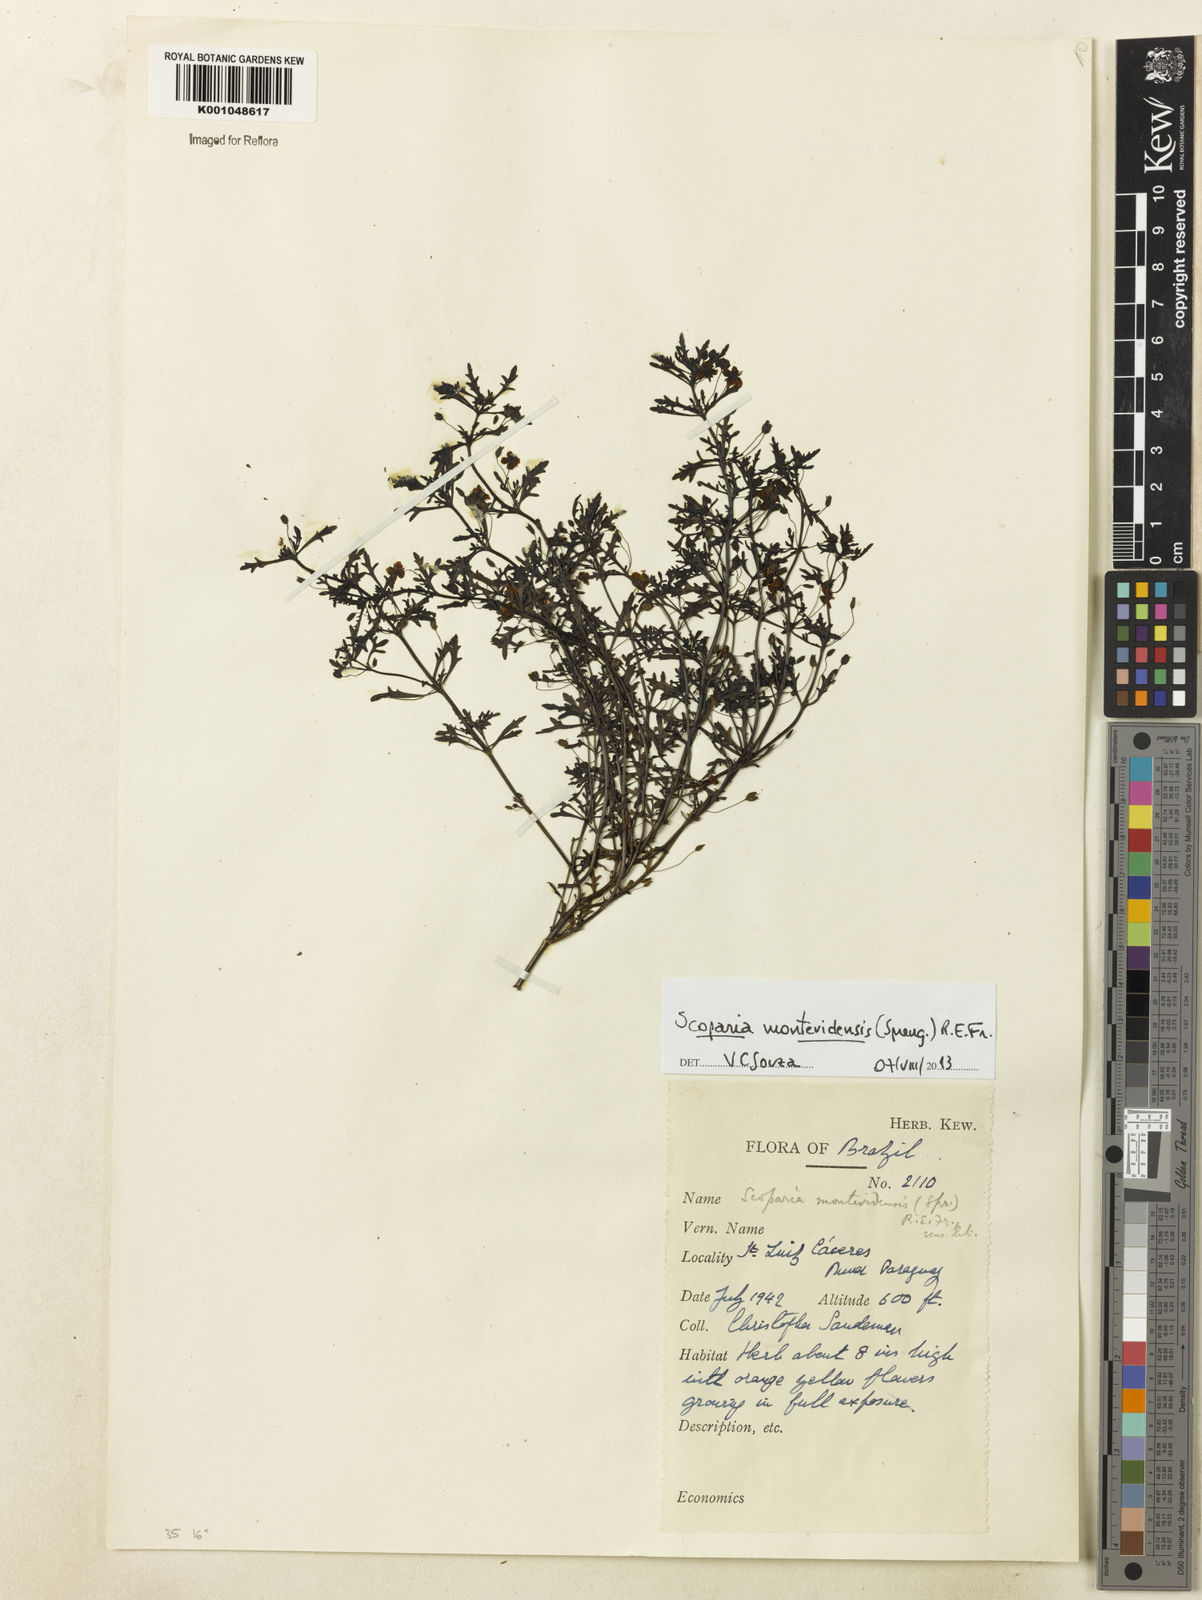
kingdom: Plantae
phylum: Tracheophyta
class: Magnoliopsida
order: Lamiales
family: Plantaginaceae
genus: Scoparia
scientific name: Scoparia montevidensis
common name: Broomwort
